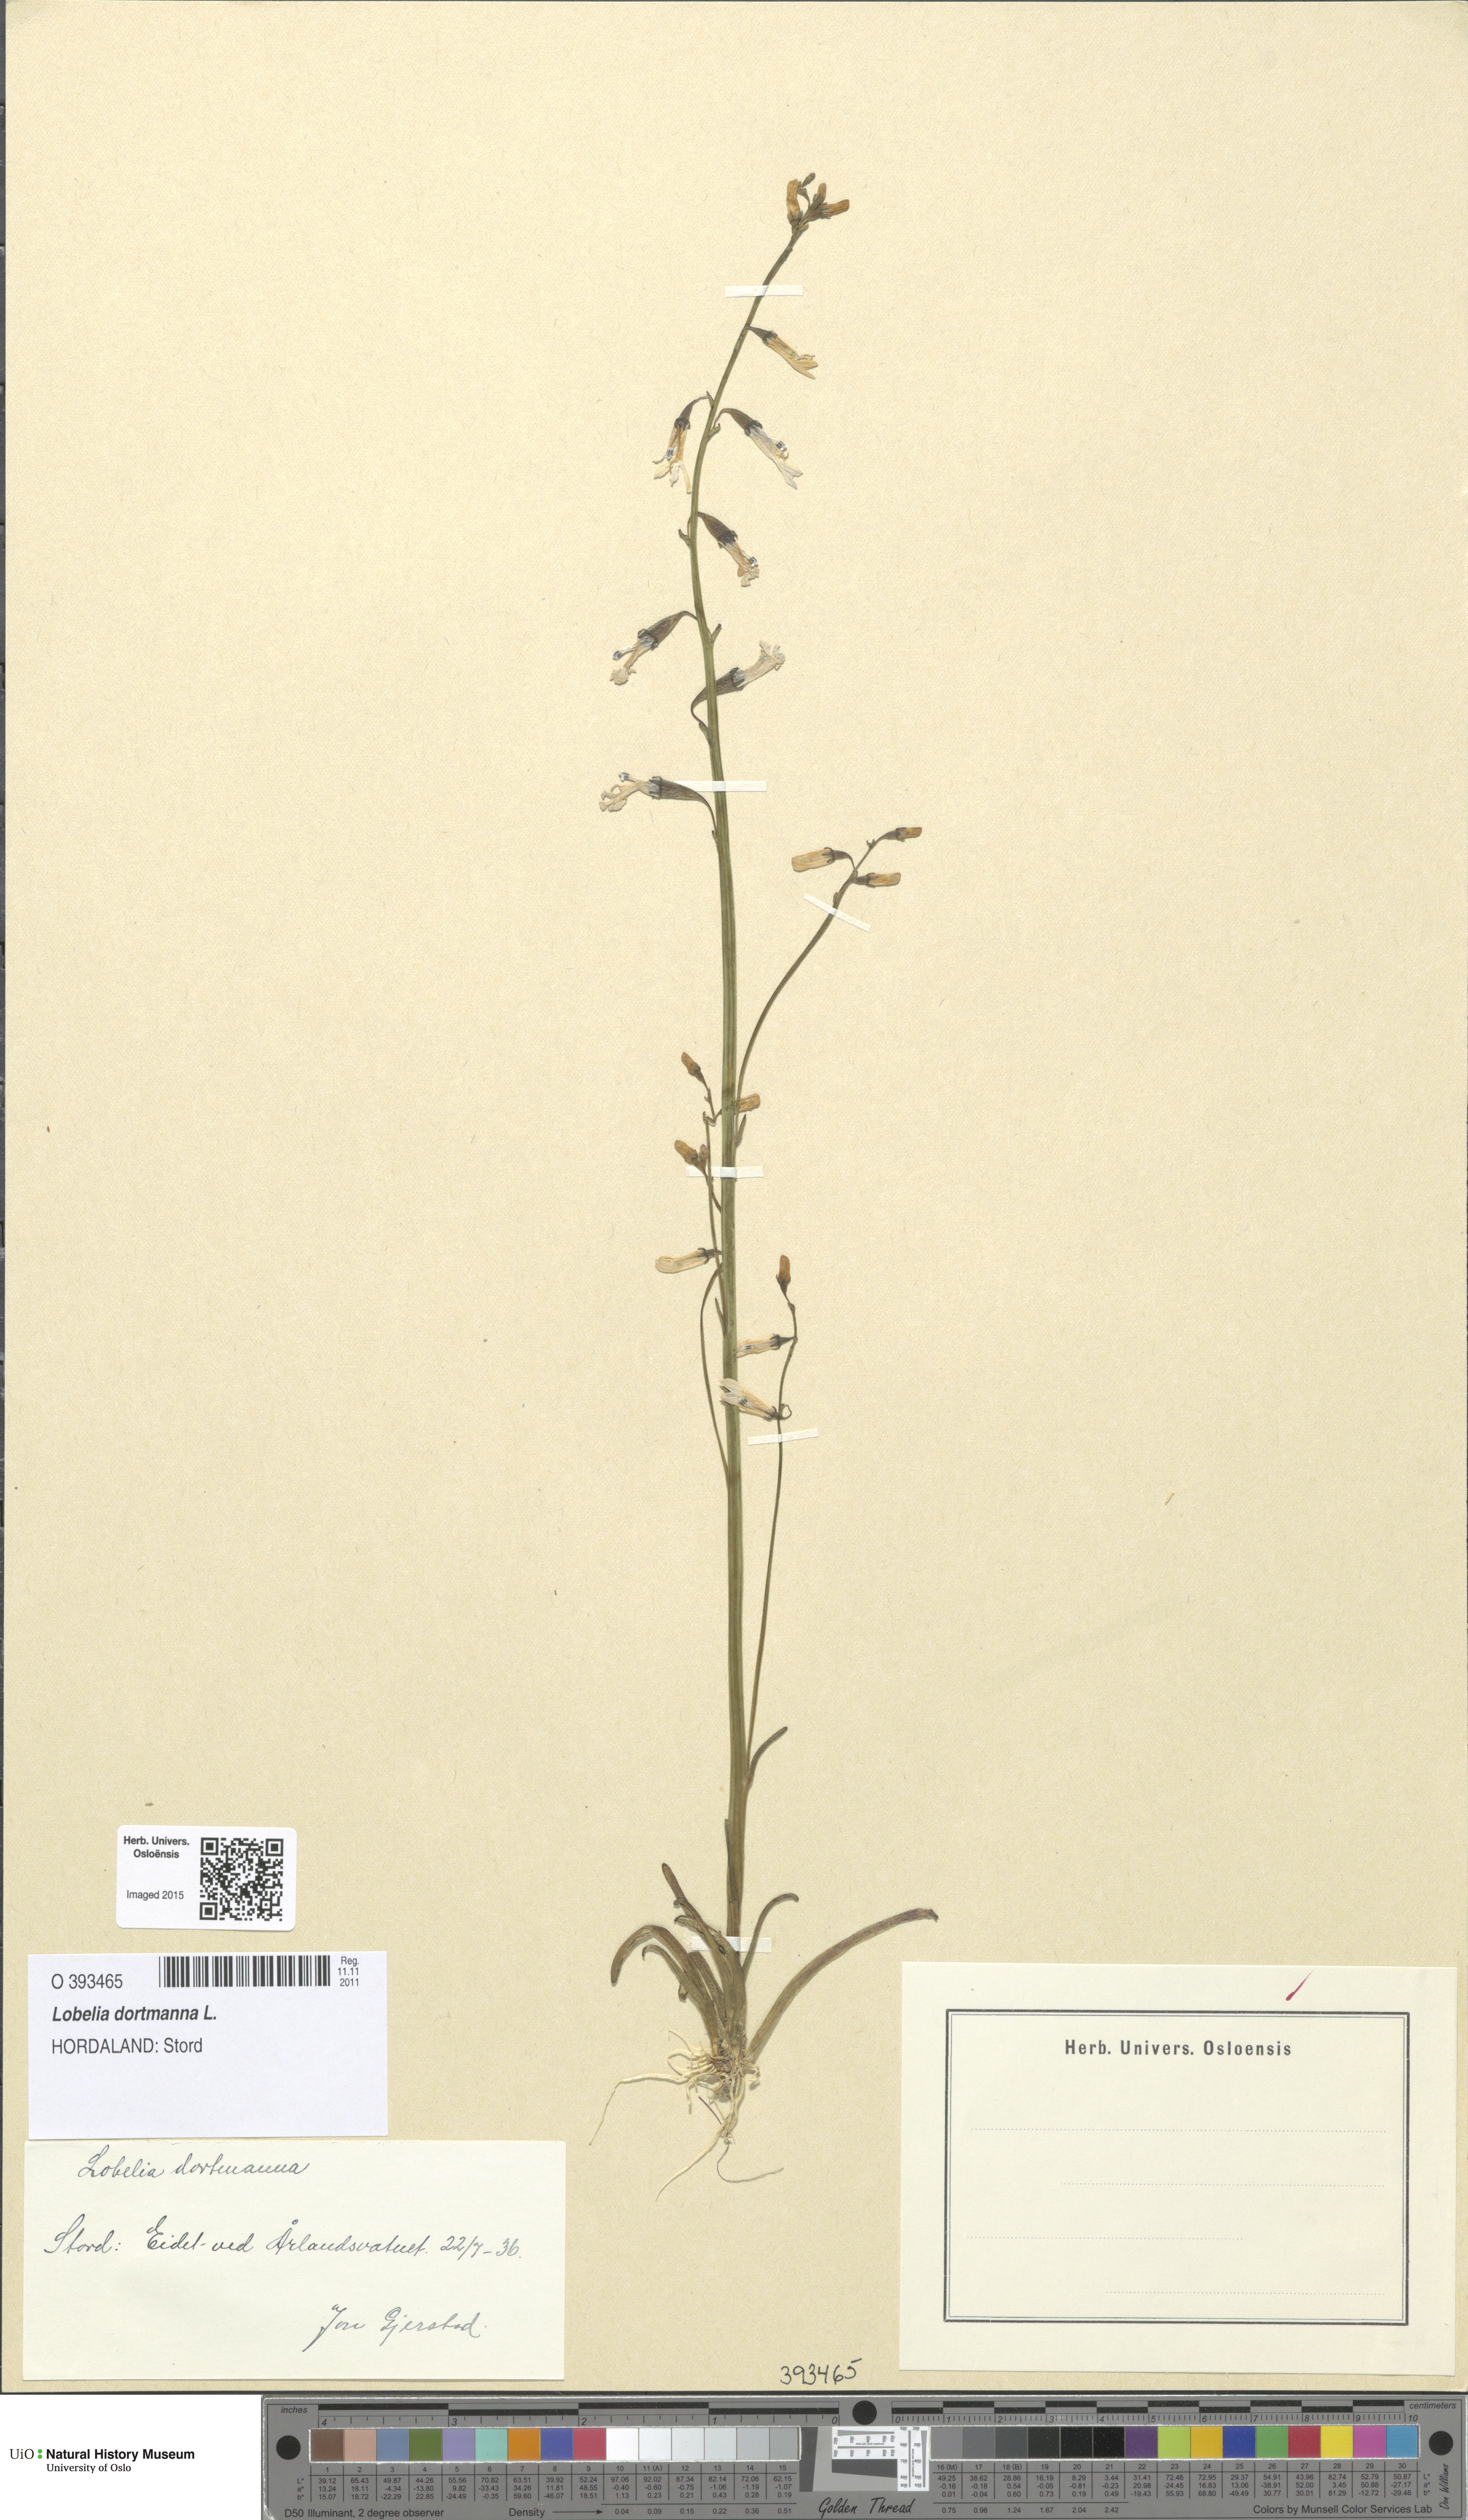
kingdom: Plantae
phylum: Tracheophyta
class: Magnoliopsida
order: Asterales
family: Campanulaceae
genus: Lobelia
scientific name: Lobelia dortmanna
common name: Water lobelia
